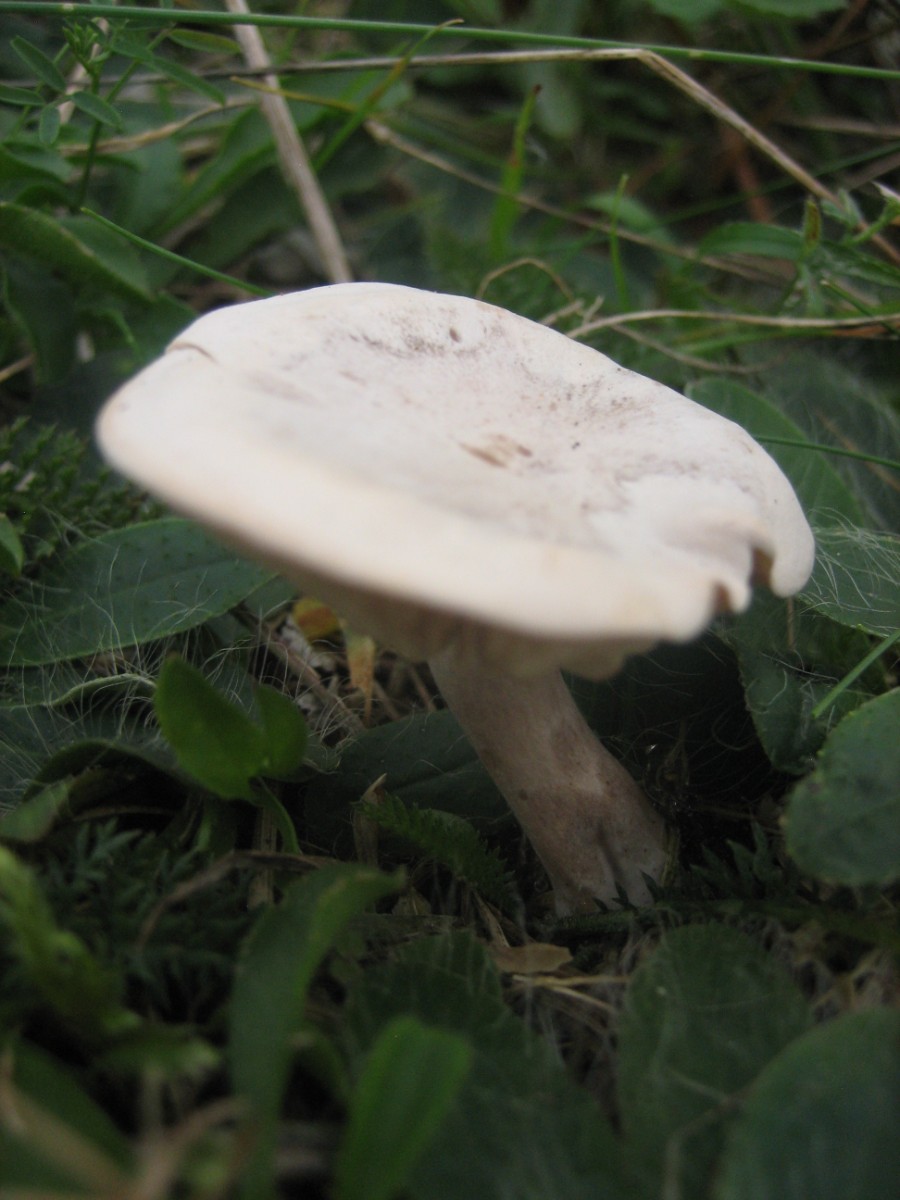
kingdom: Fungi
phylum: Basidiomycota
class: Agaricomycetes
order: Agaricales
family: Tricholomataceae
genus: Clitocybe
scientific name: Clitocybe rivulosa
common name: eng-tragthat
